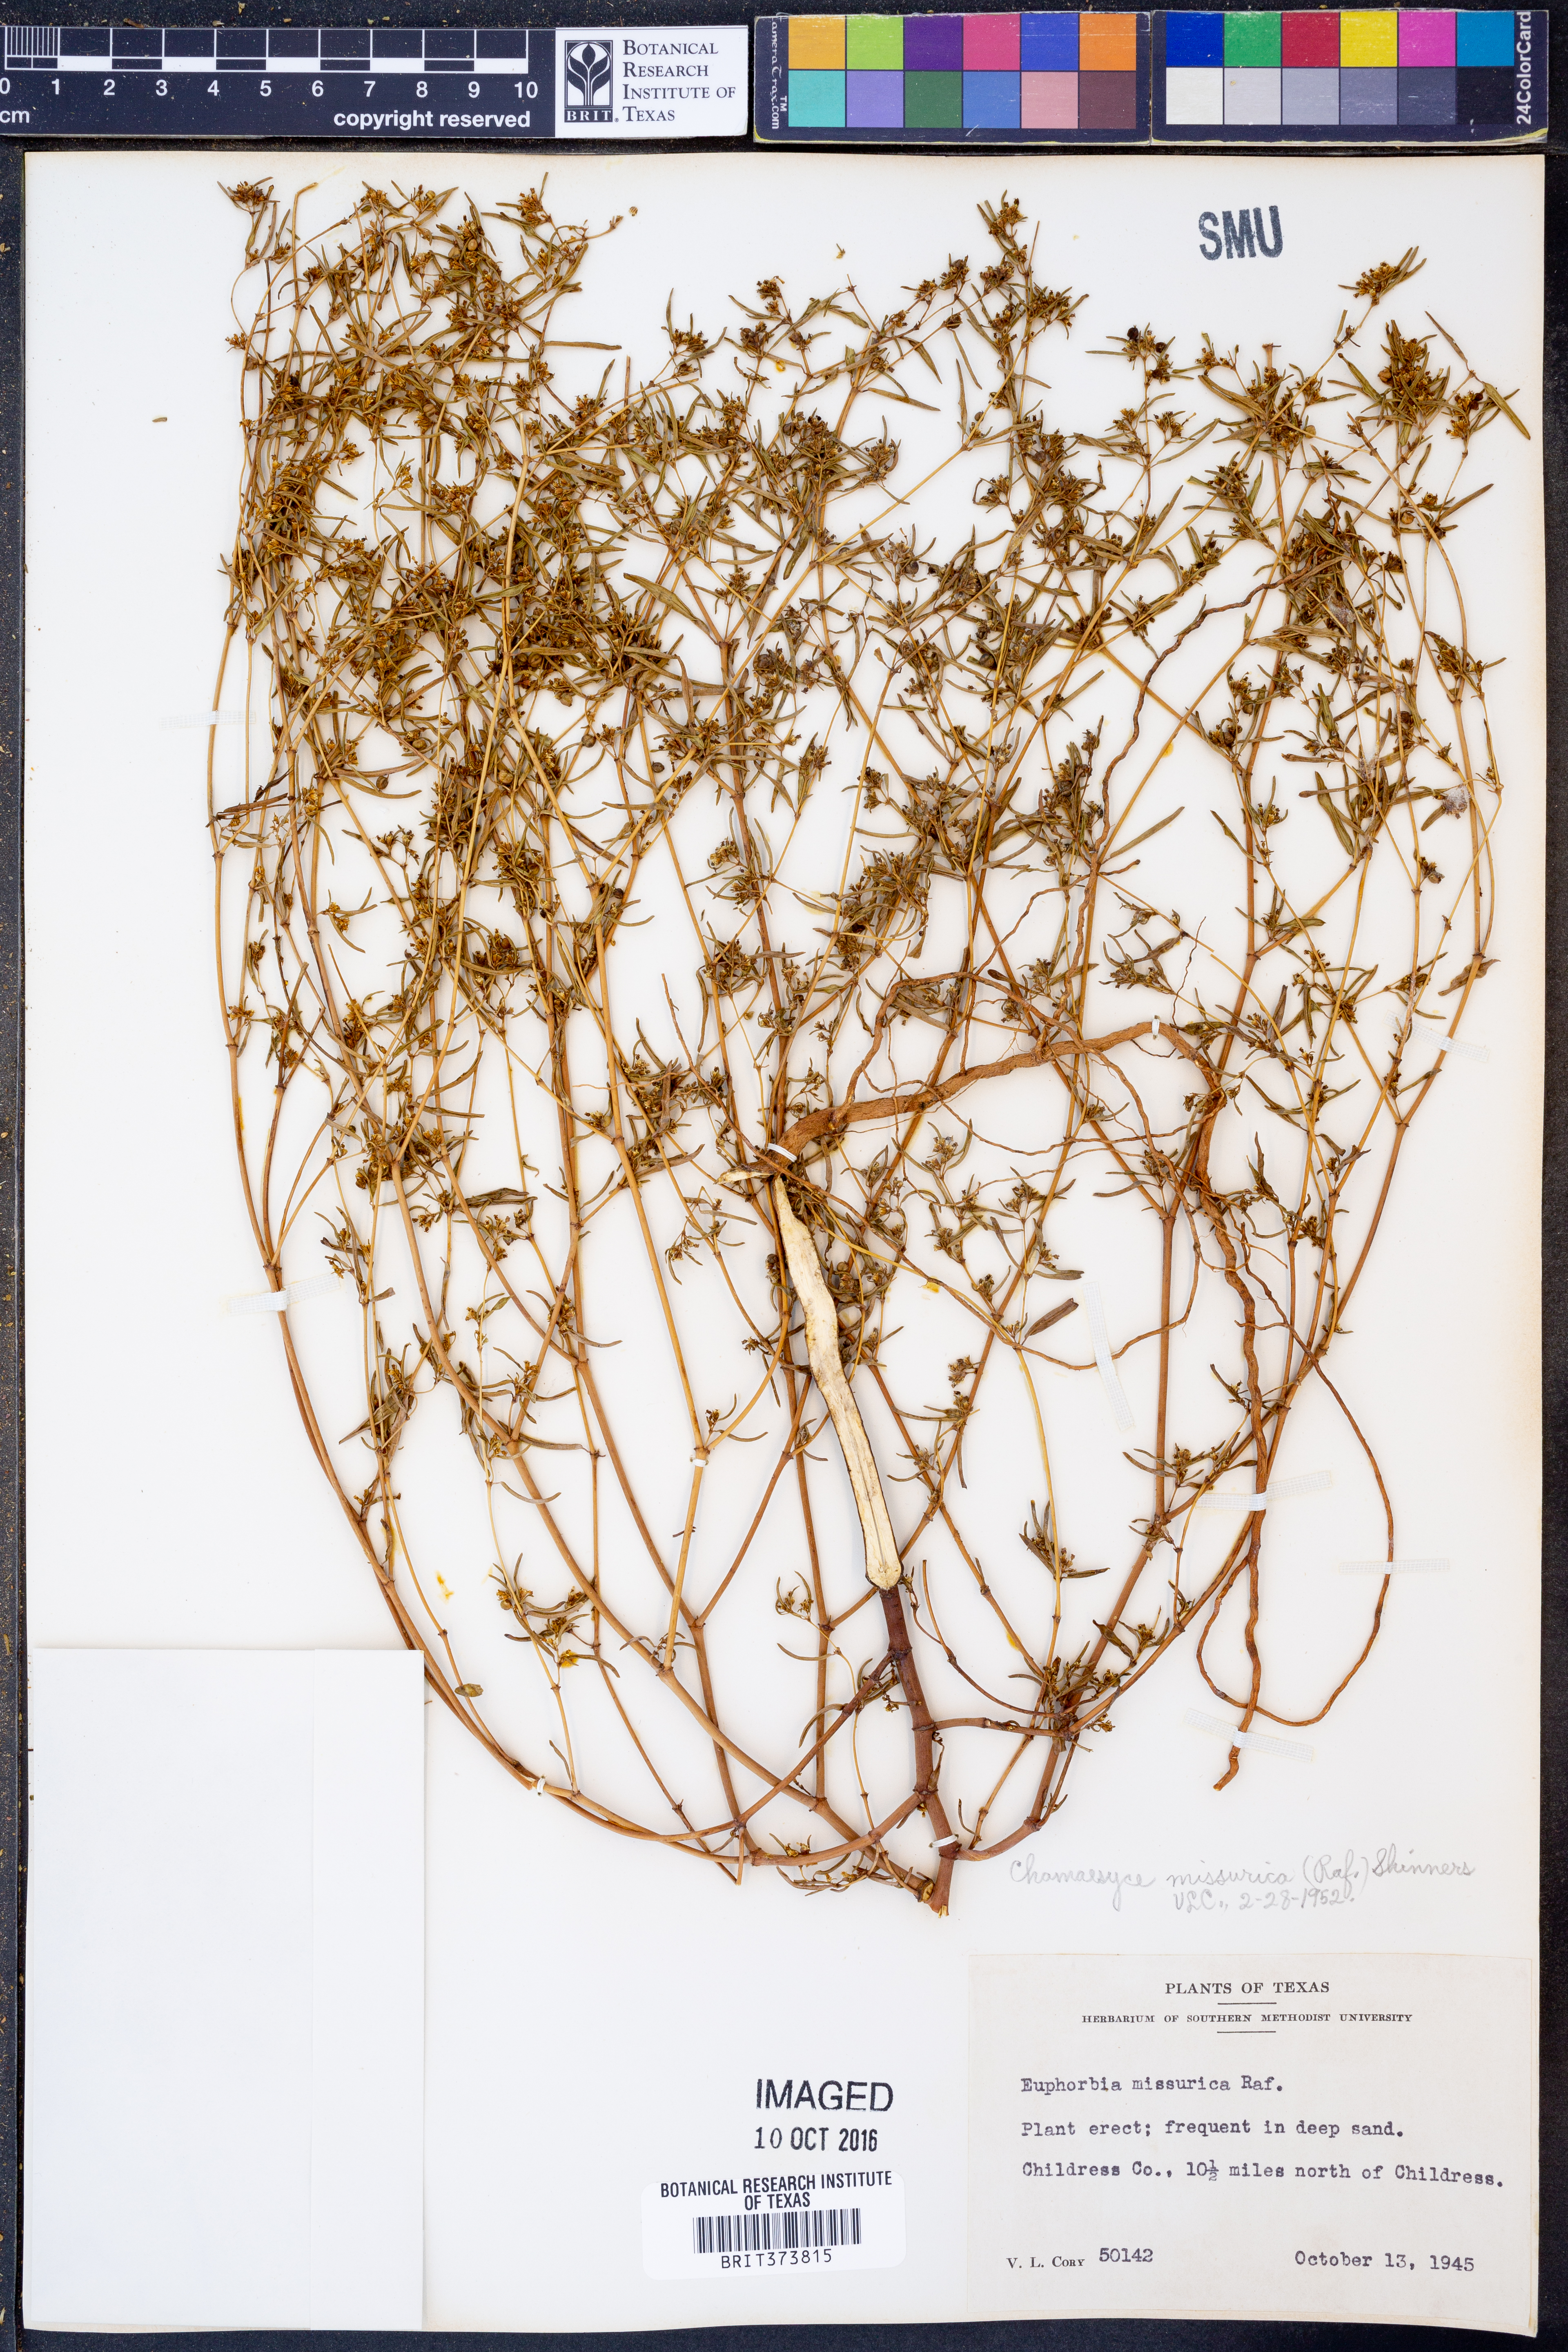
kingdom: Plantae
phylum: Tracheophyta
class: Magnoliopsida
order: Malpighiales
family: Euphorbiaceae
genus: Euphorbia
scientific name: Euphorbia missurica
